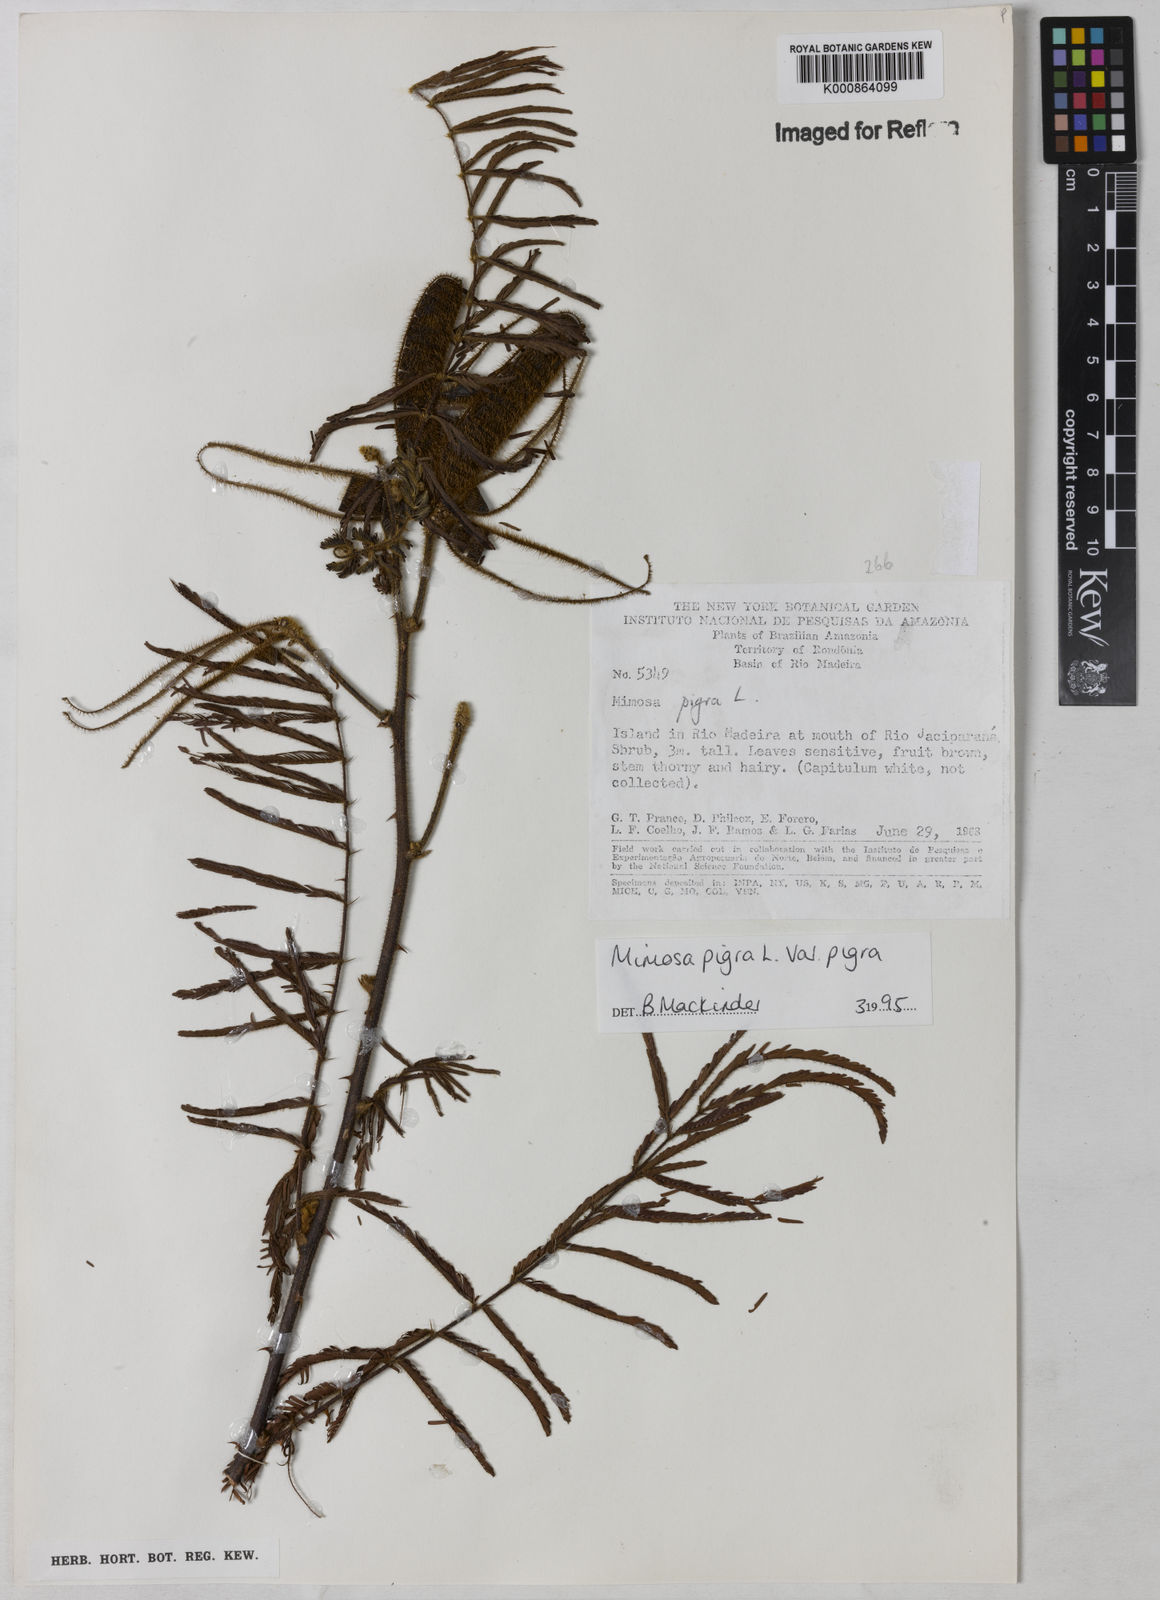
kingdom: Plantae
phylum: Tracheophyta
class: Magnoliopsida
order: Fabales
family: Fabaceae
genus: Mimosa
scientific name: Mimosa pigra
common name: Black mimosa
